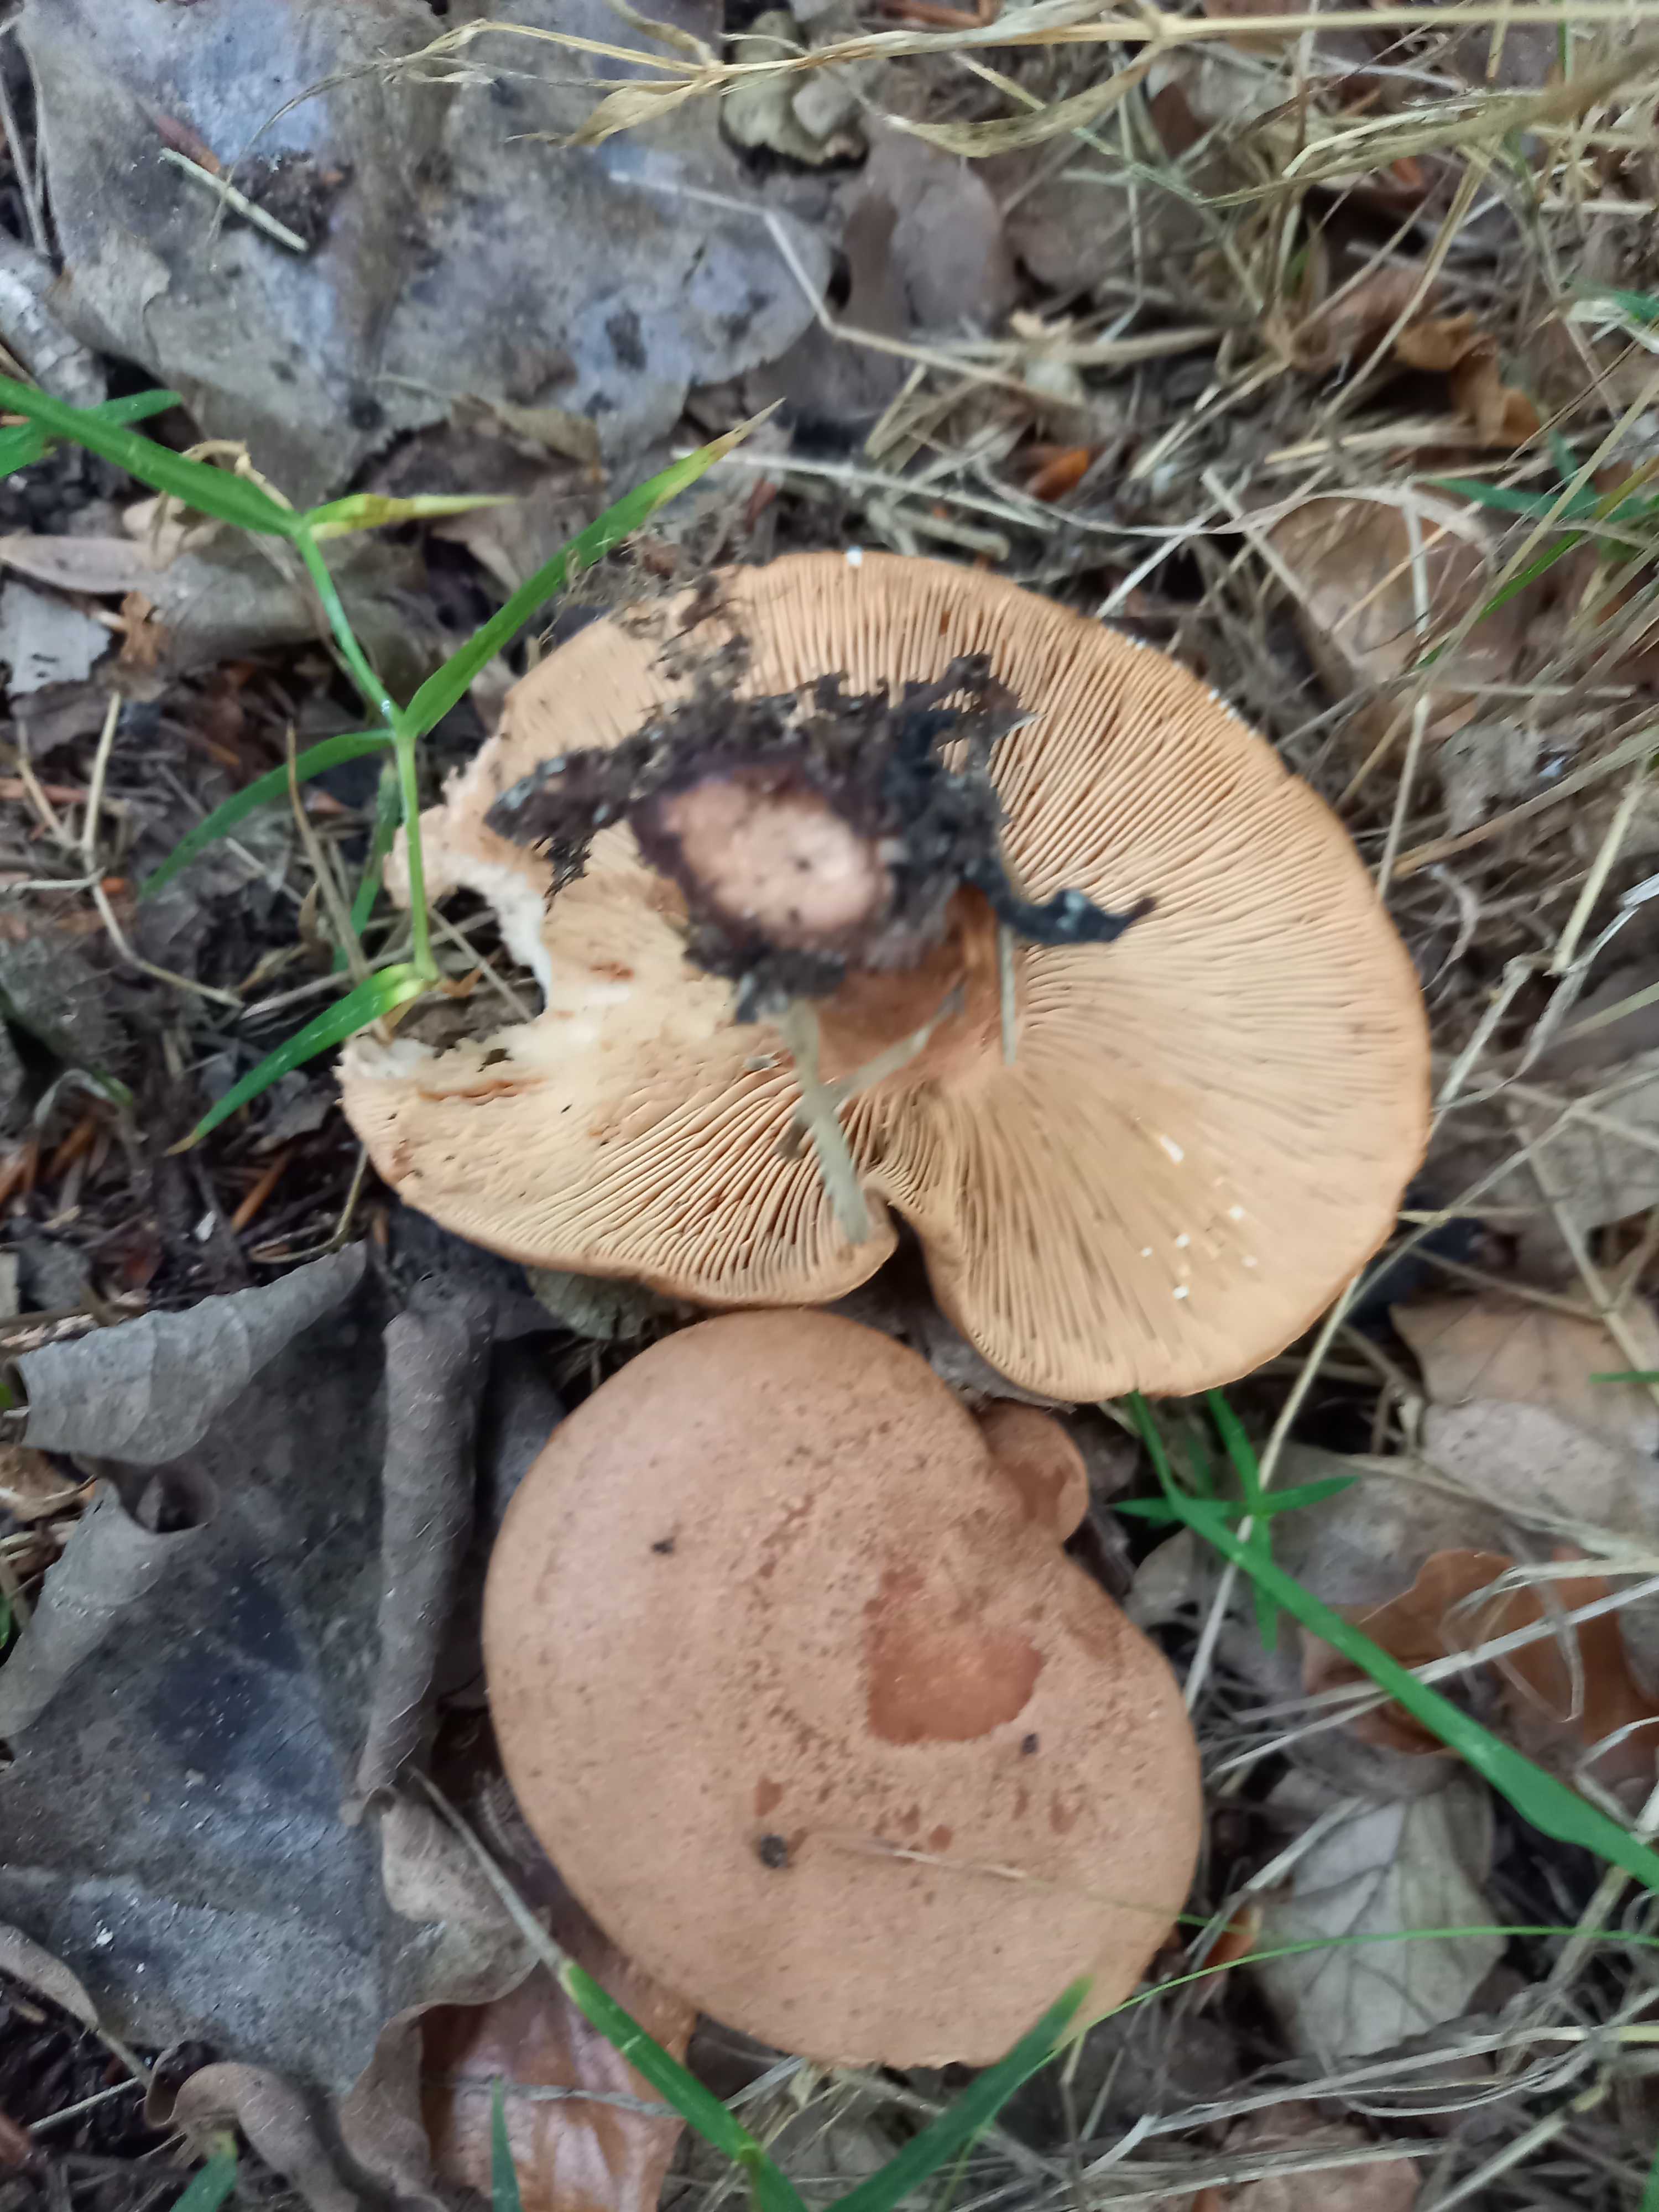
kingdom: Fungi
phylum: Basidiomycota
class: Agaricomycetes
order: Russulales
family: Russulaceae
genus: Lactarius
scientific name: Lactarius quietus
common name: ege-mælkehat
